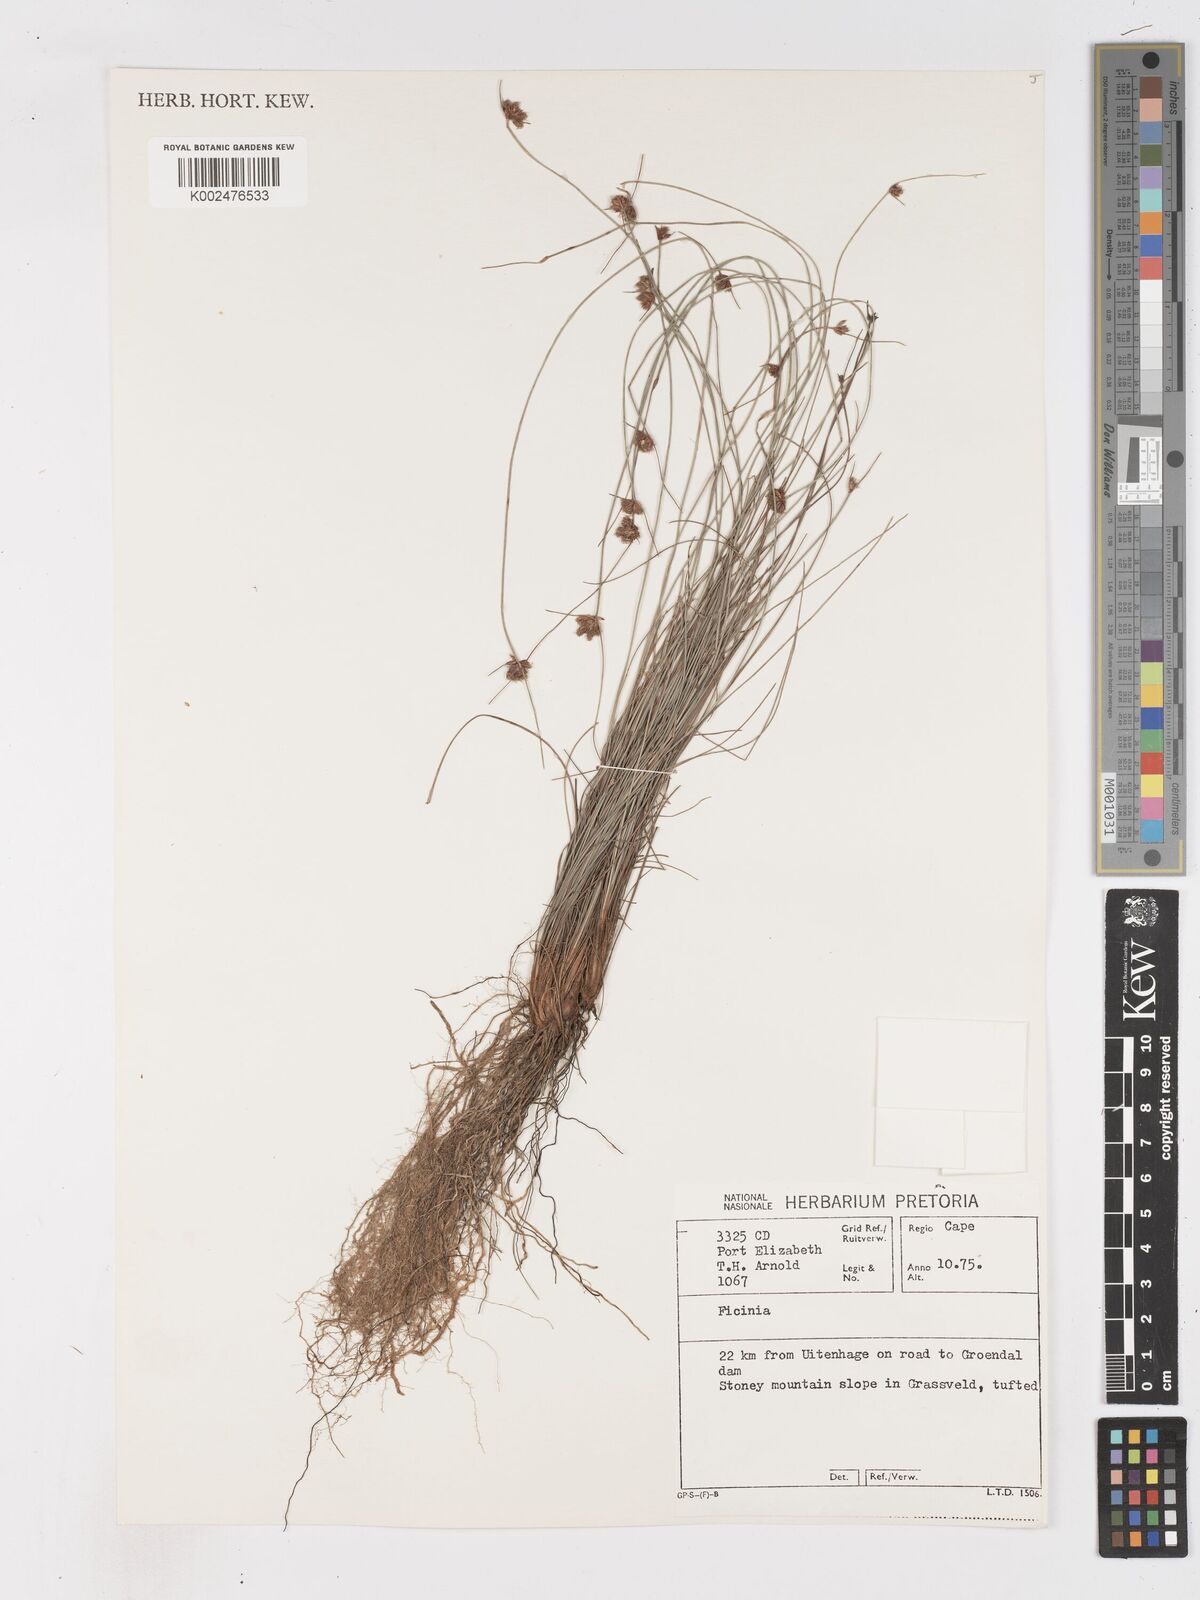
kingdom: Plantae
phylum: Tracheophyta
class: Liliopsida
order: Poales
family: Cyperaceae
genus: Ficinia
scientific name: Ficinia
